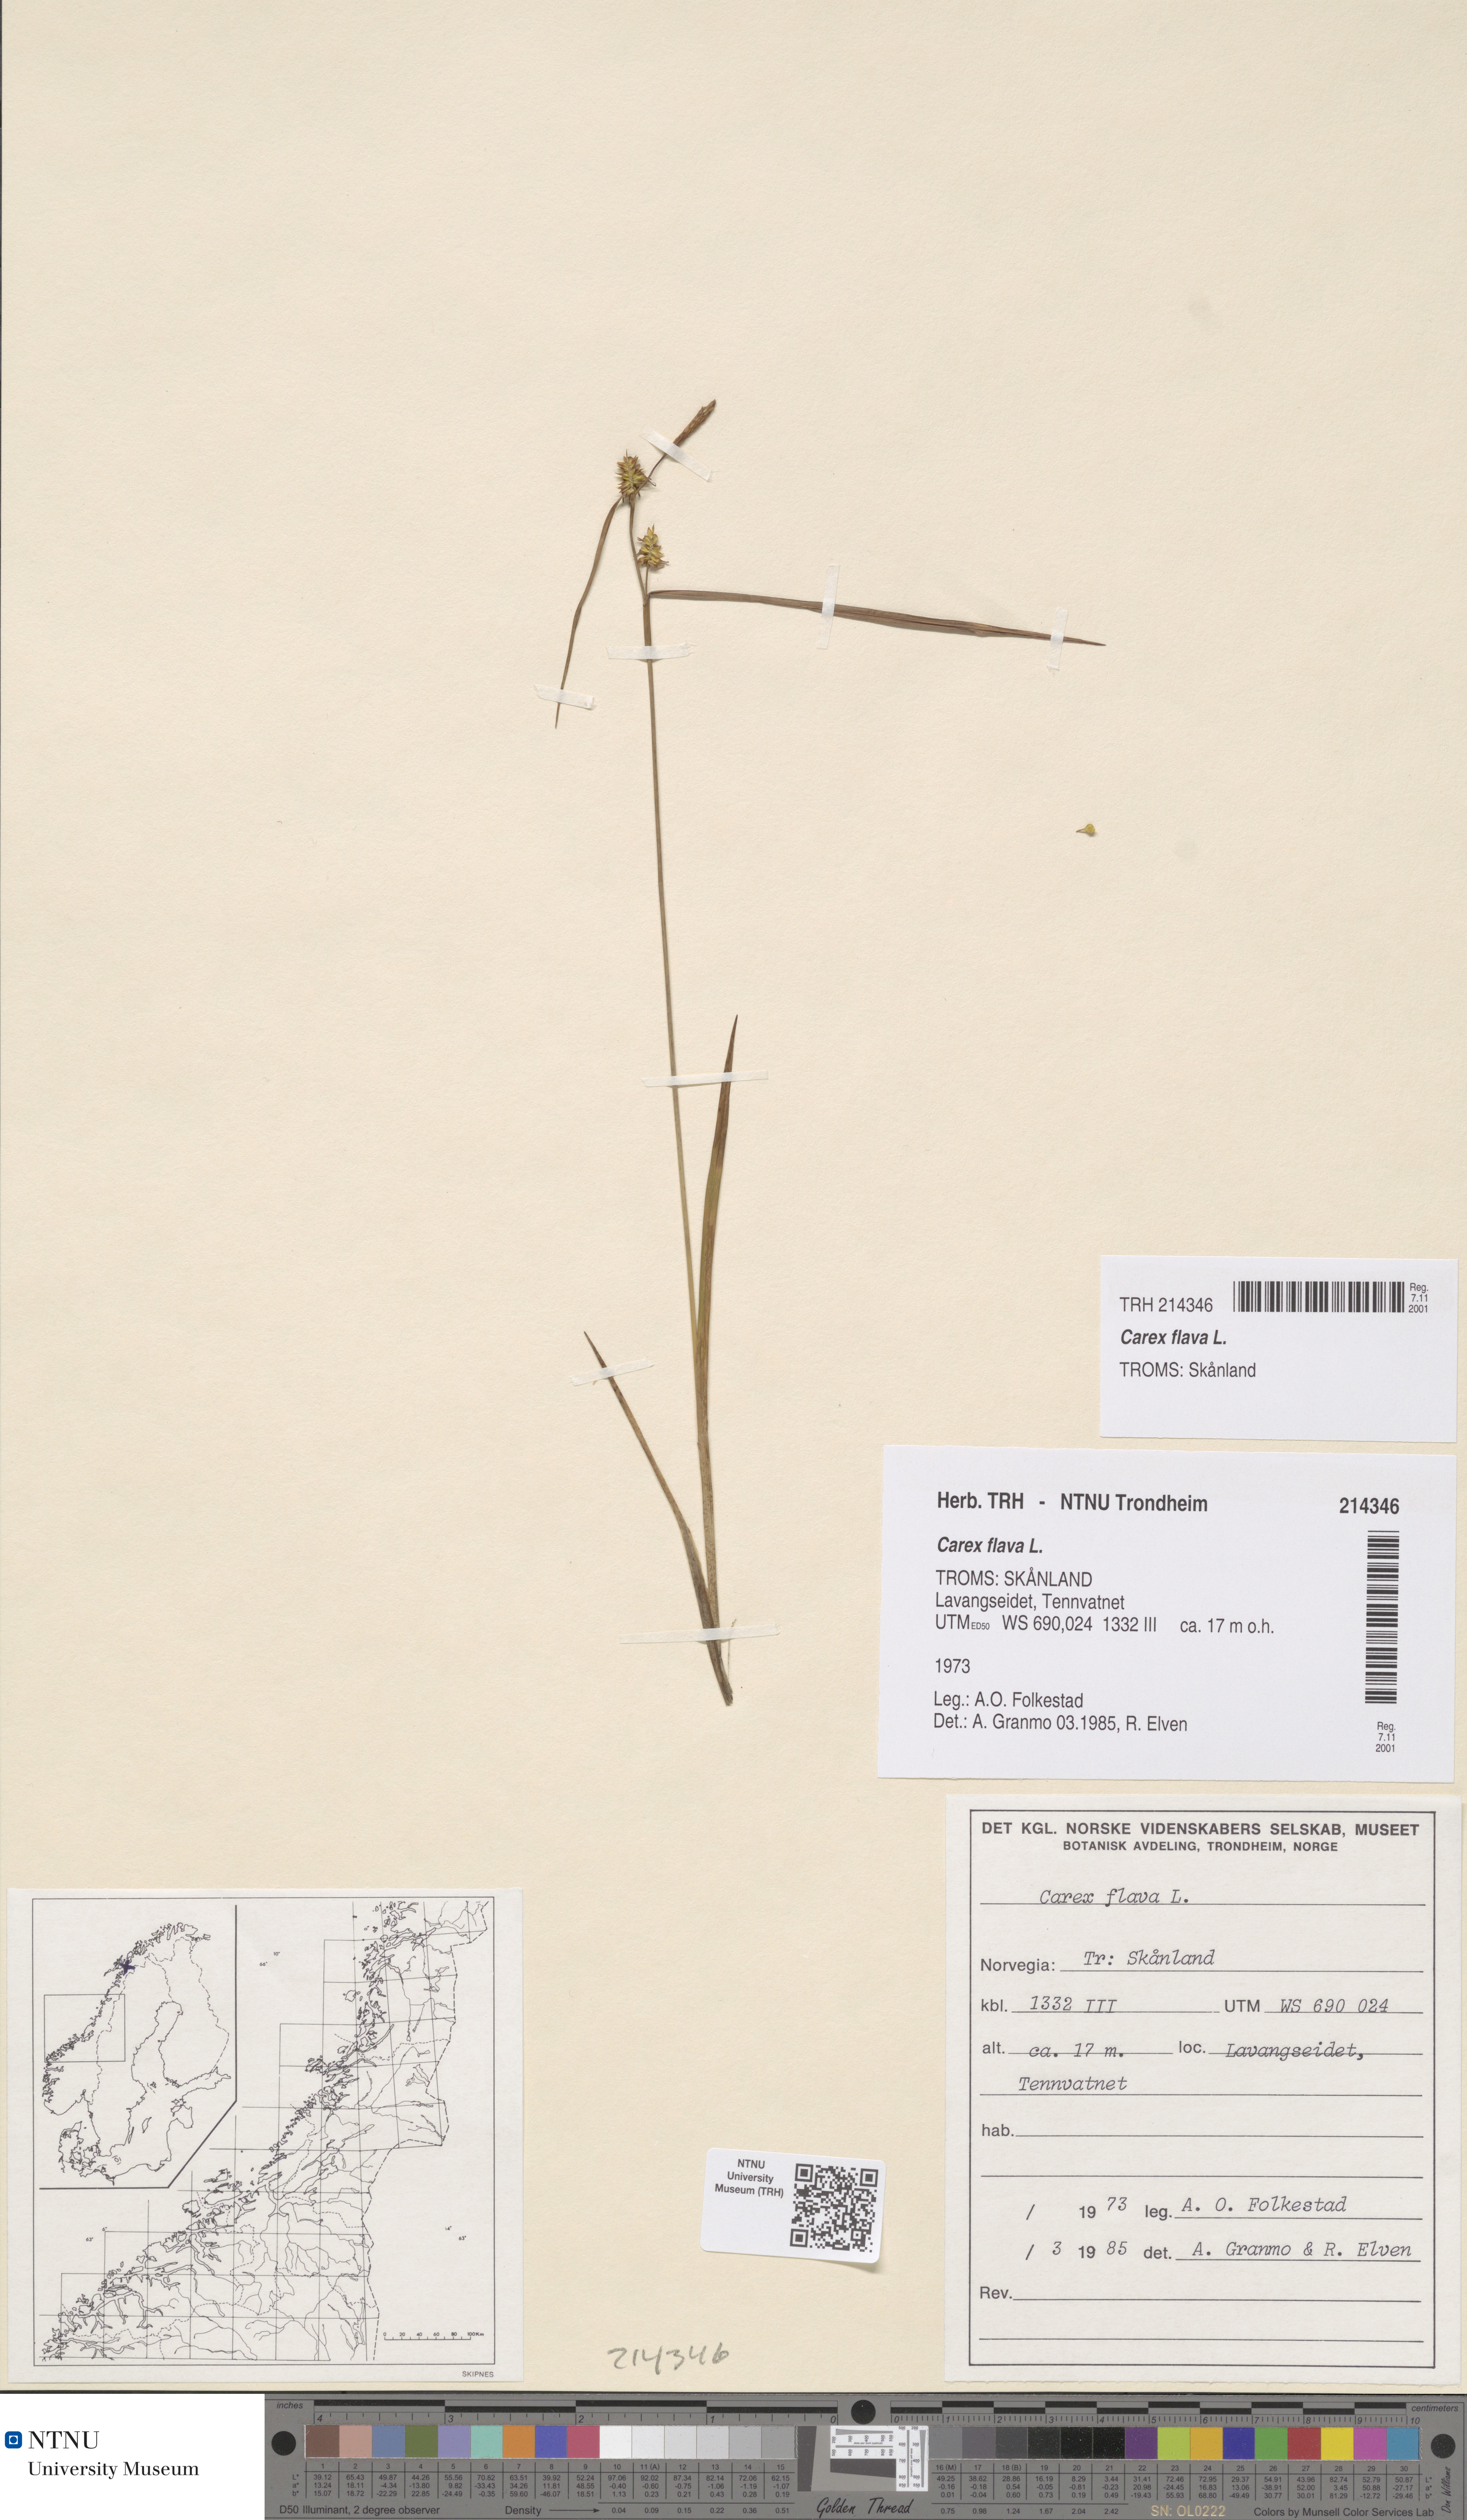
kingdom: Plantae
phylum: Tracheophyta
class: Liliopsida
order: Poales
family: Cyperaceae
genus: Carex
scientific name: Carex flava
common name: Large yellow-sedge
